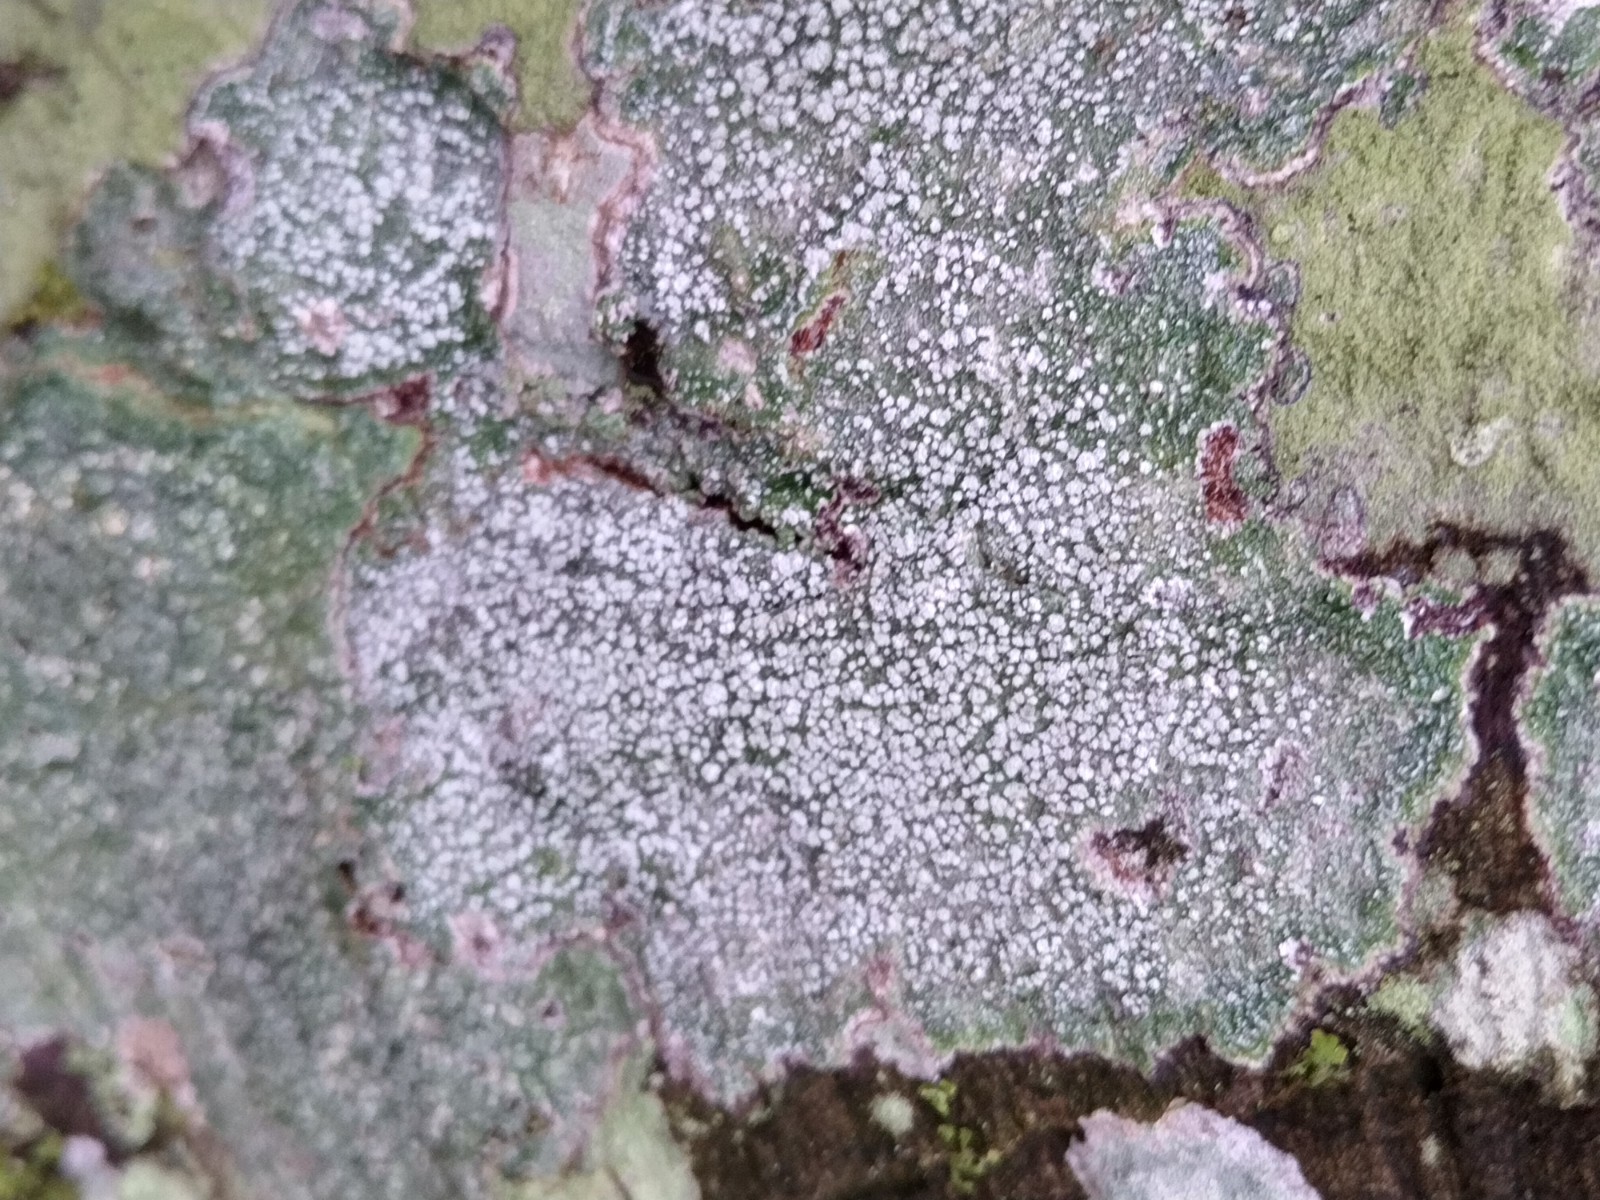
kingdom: Fungi
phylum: Ascomycota
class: Lecanoromycetes
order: Pertusariales
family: Pertusariaceae
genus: Lepra
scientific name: Lepra amara
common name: bitter prikvortelav
